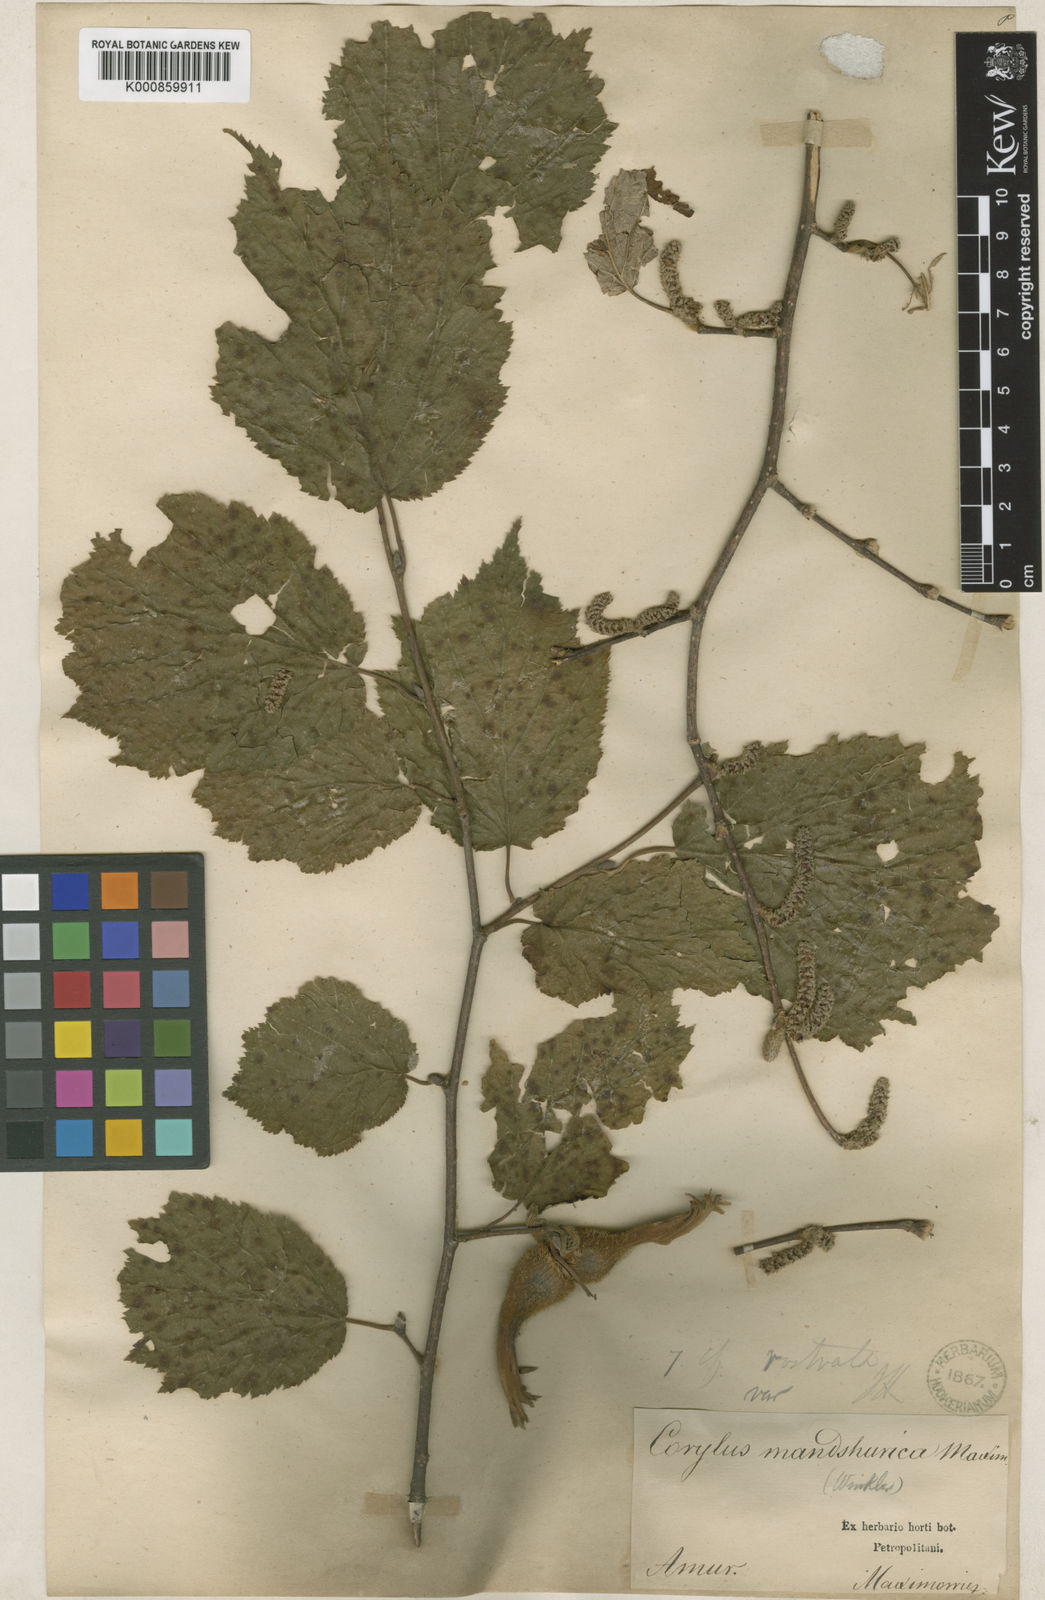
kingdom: Plantae
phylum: Tracheophyta
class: Magnoliopsida
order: Fagales
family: Betulaceae
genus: Corylus
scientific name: Corylus sieboldiana
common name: Japanese hazel
